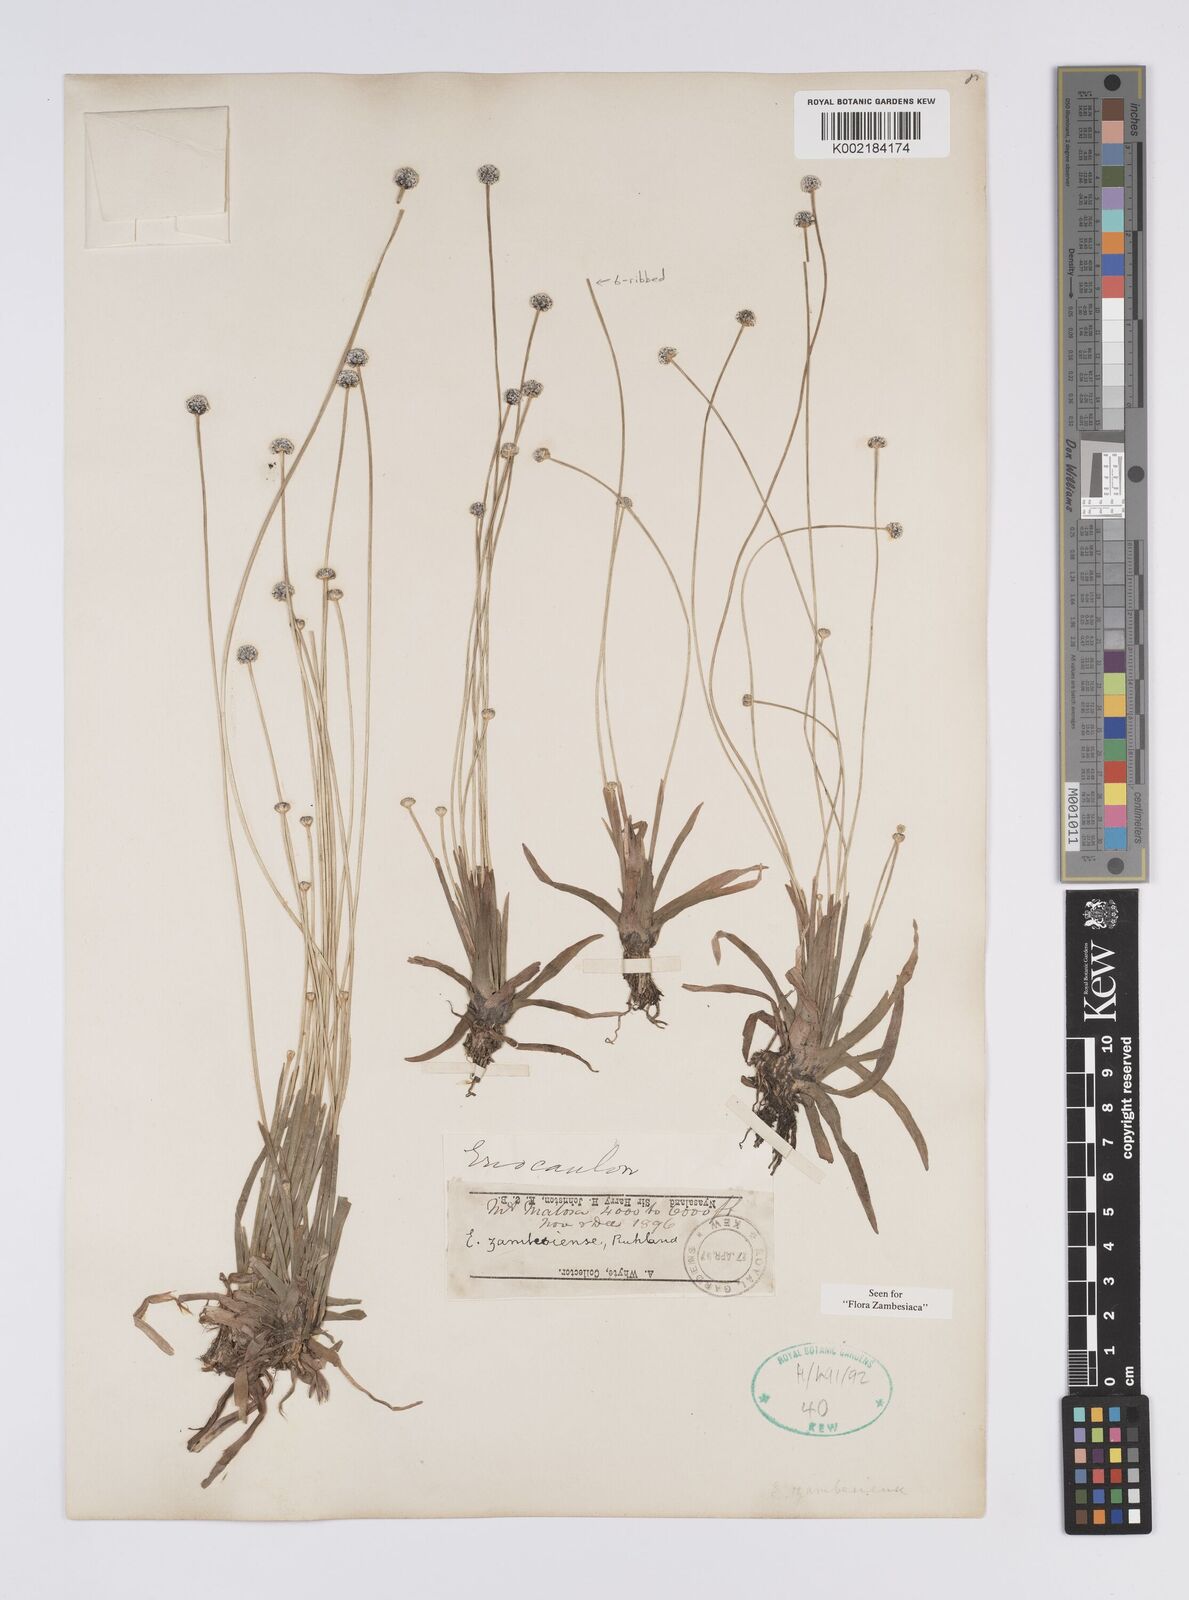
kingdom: Plantae
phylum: Tracheophyta
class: Liliopsida
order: Poales
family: Eriocaulaceae
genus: Eriocaulon
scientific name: Eriocaulon zambesiense
